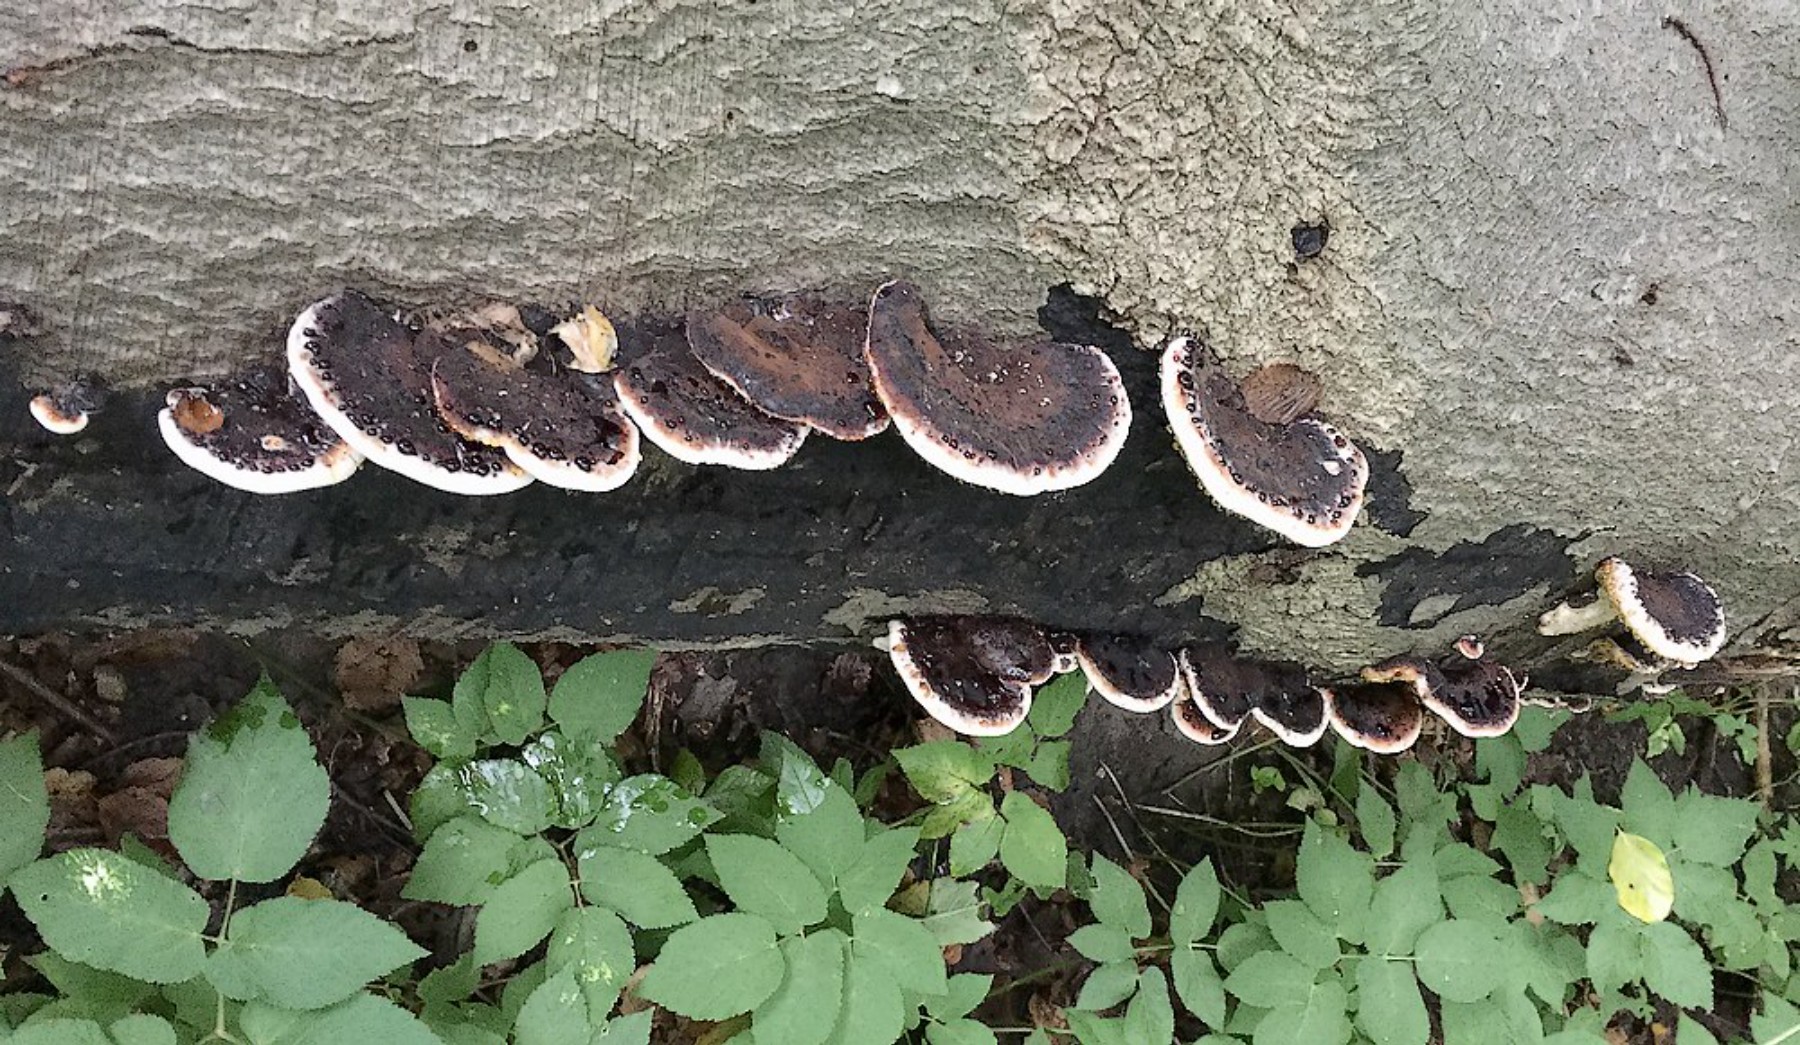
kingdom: Fungi
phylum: Basidiomycota
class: Agaricomycetes
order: Polyporales
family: Ischnodermataceae
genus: Ischnoderma
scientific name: Ischnoderma resinosum
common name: løv-tjæreporesvamp
